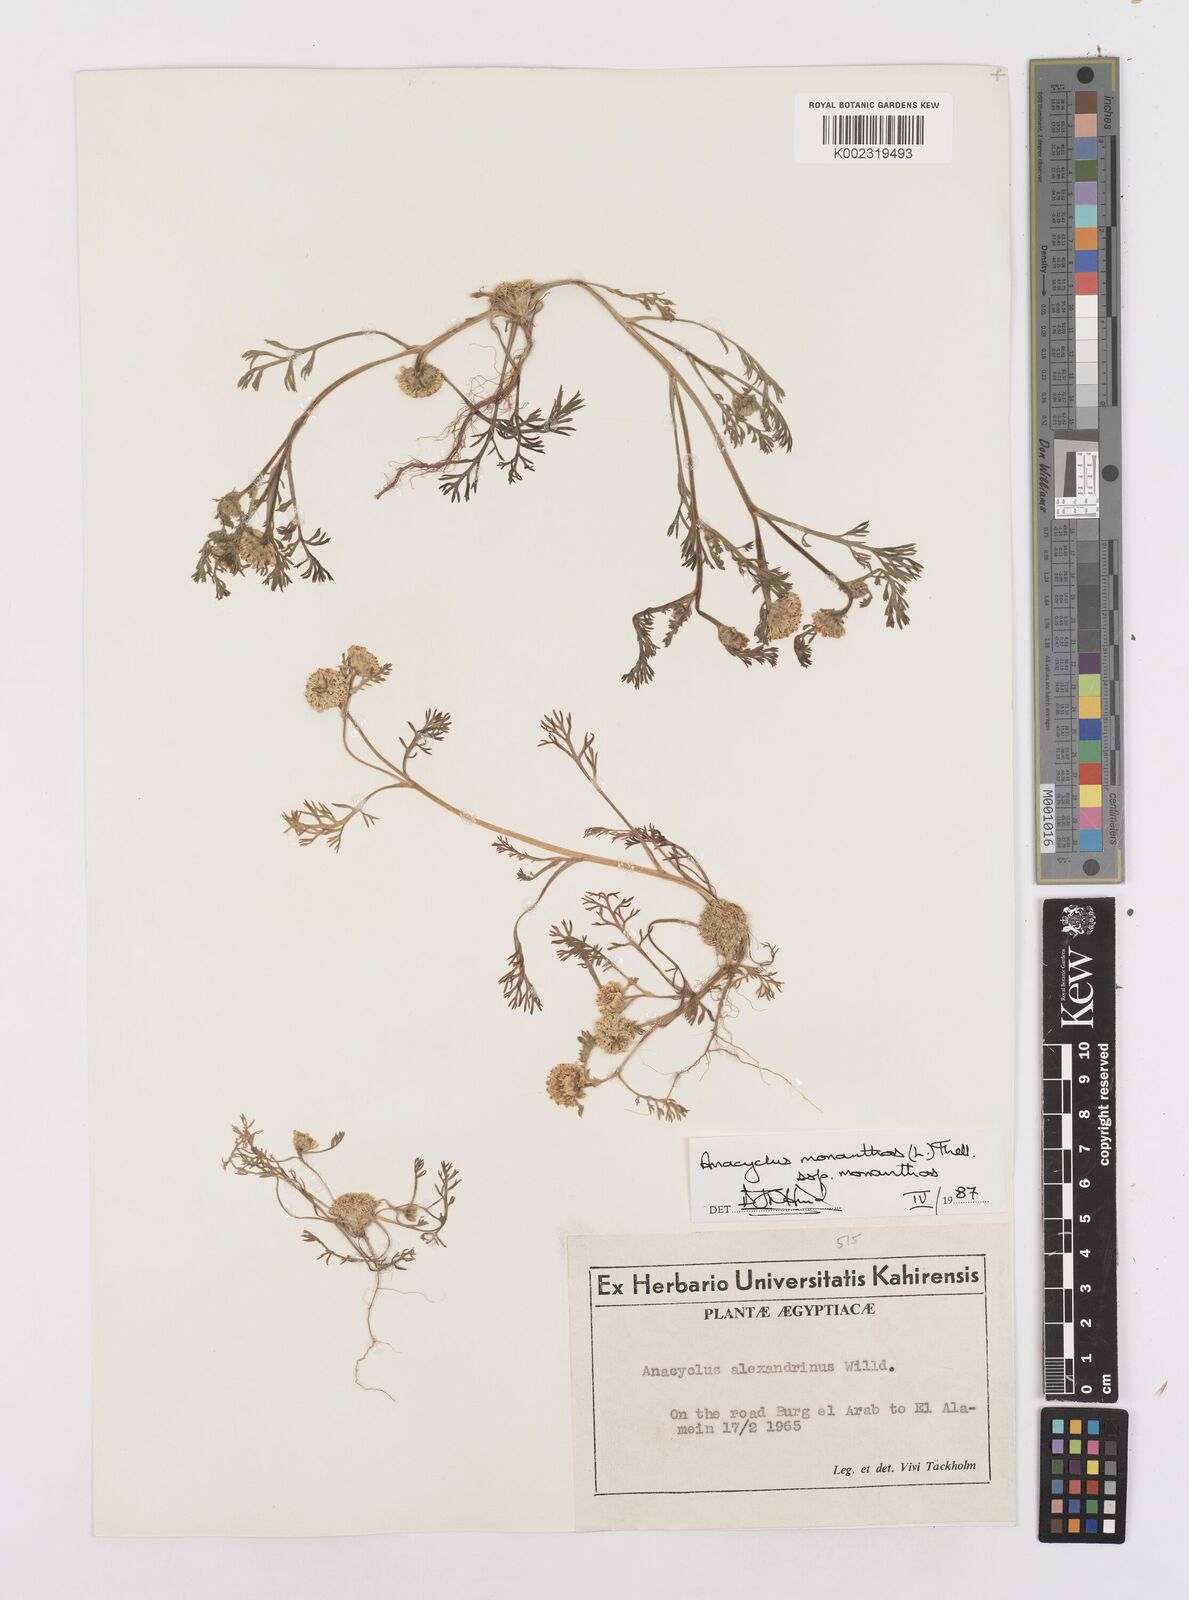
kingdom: Plantae
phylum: Tracheophyta
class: Magnoliopsida
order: Asterales
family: Asteraceae
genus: Anacyclus
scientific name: Anacyclus monanthos
